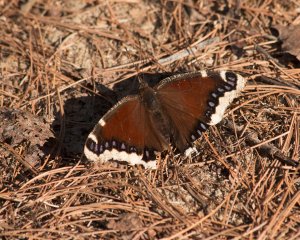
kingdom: Animalia
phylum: Arthropoda
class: Insecta
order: Lepidoptera
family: Nymphalidae
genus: Nymphalis
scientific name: Nymphalis antiopa
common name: Mourning Cloak
